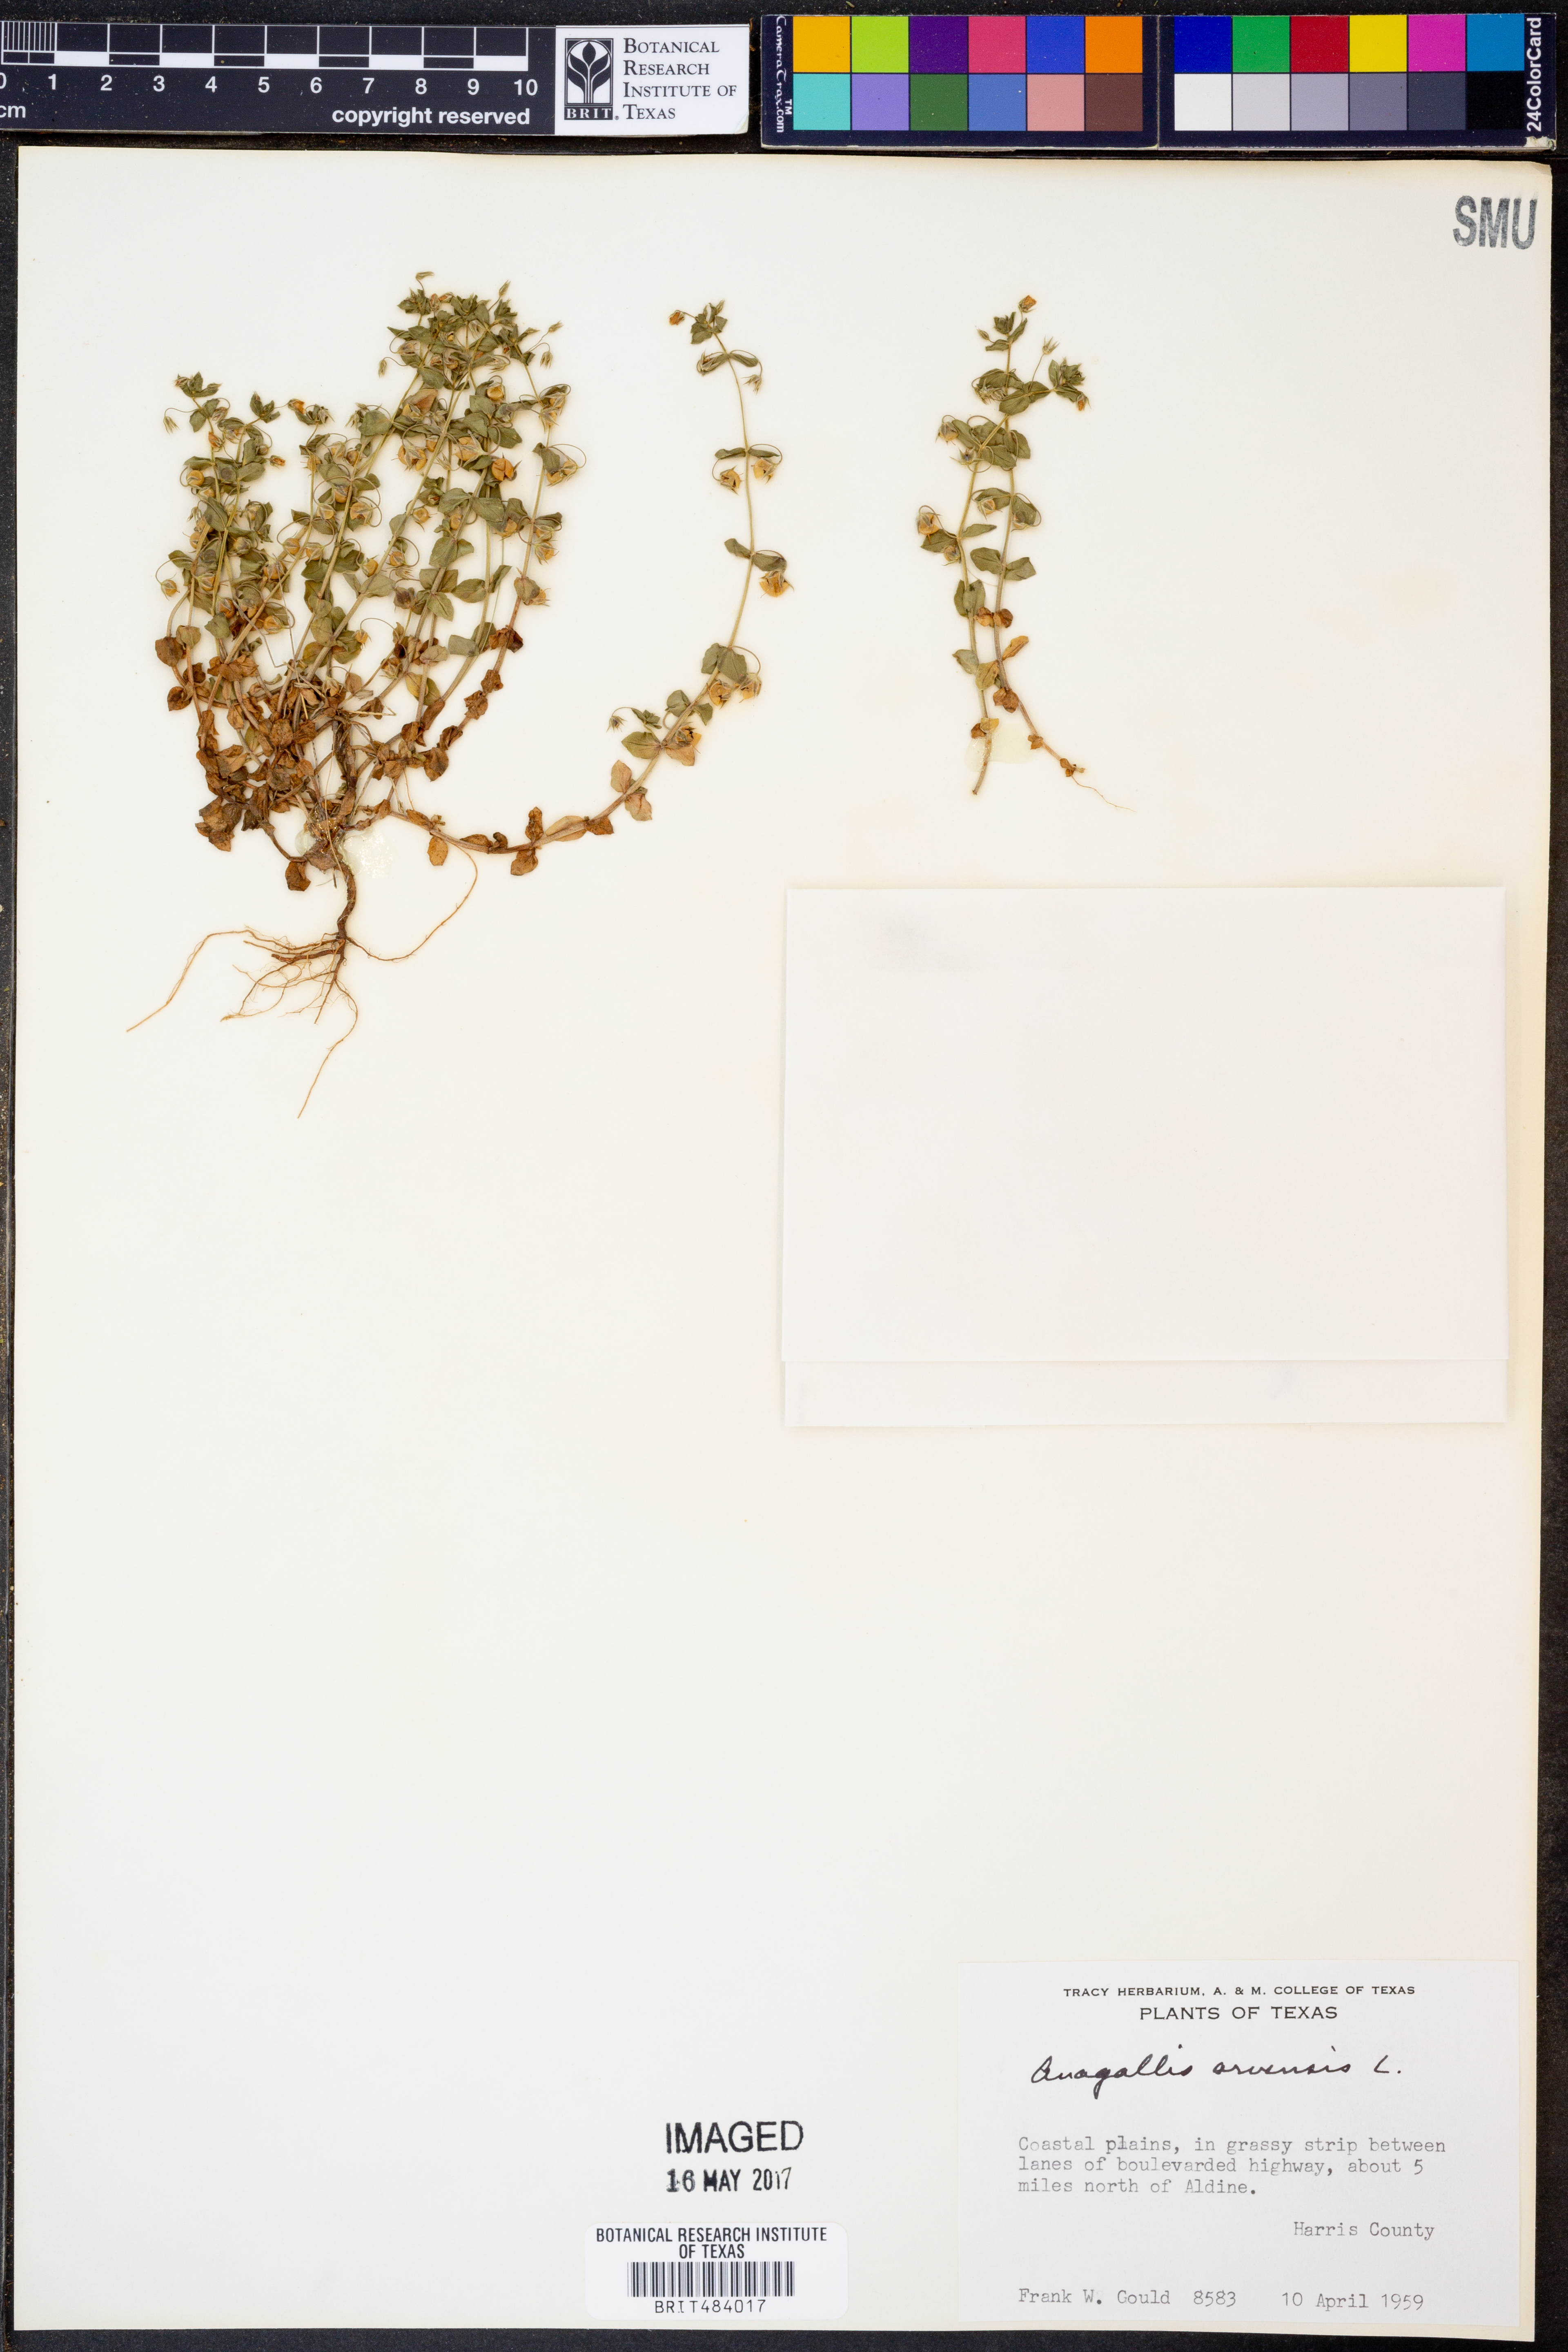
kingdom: Plantae
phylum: Tracheophyta
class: Magnoliopsida
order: Ericales
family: Primulaceae
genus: Lysimachia
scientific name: Lysimachia arvensis
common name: Scarlet pimpernel
